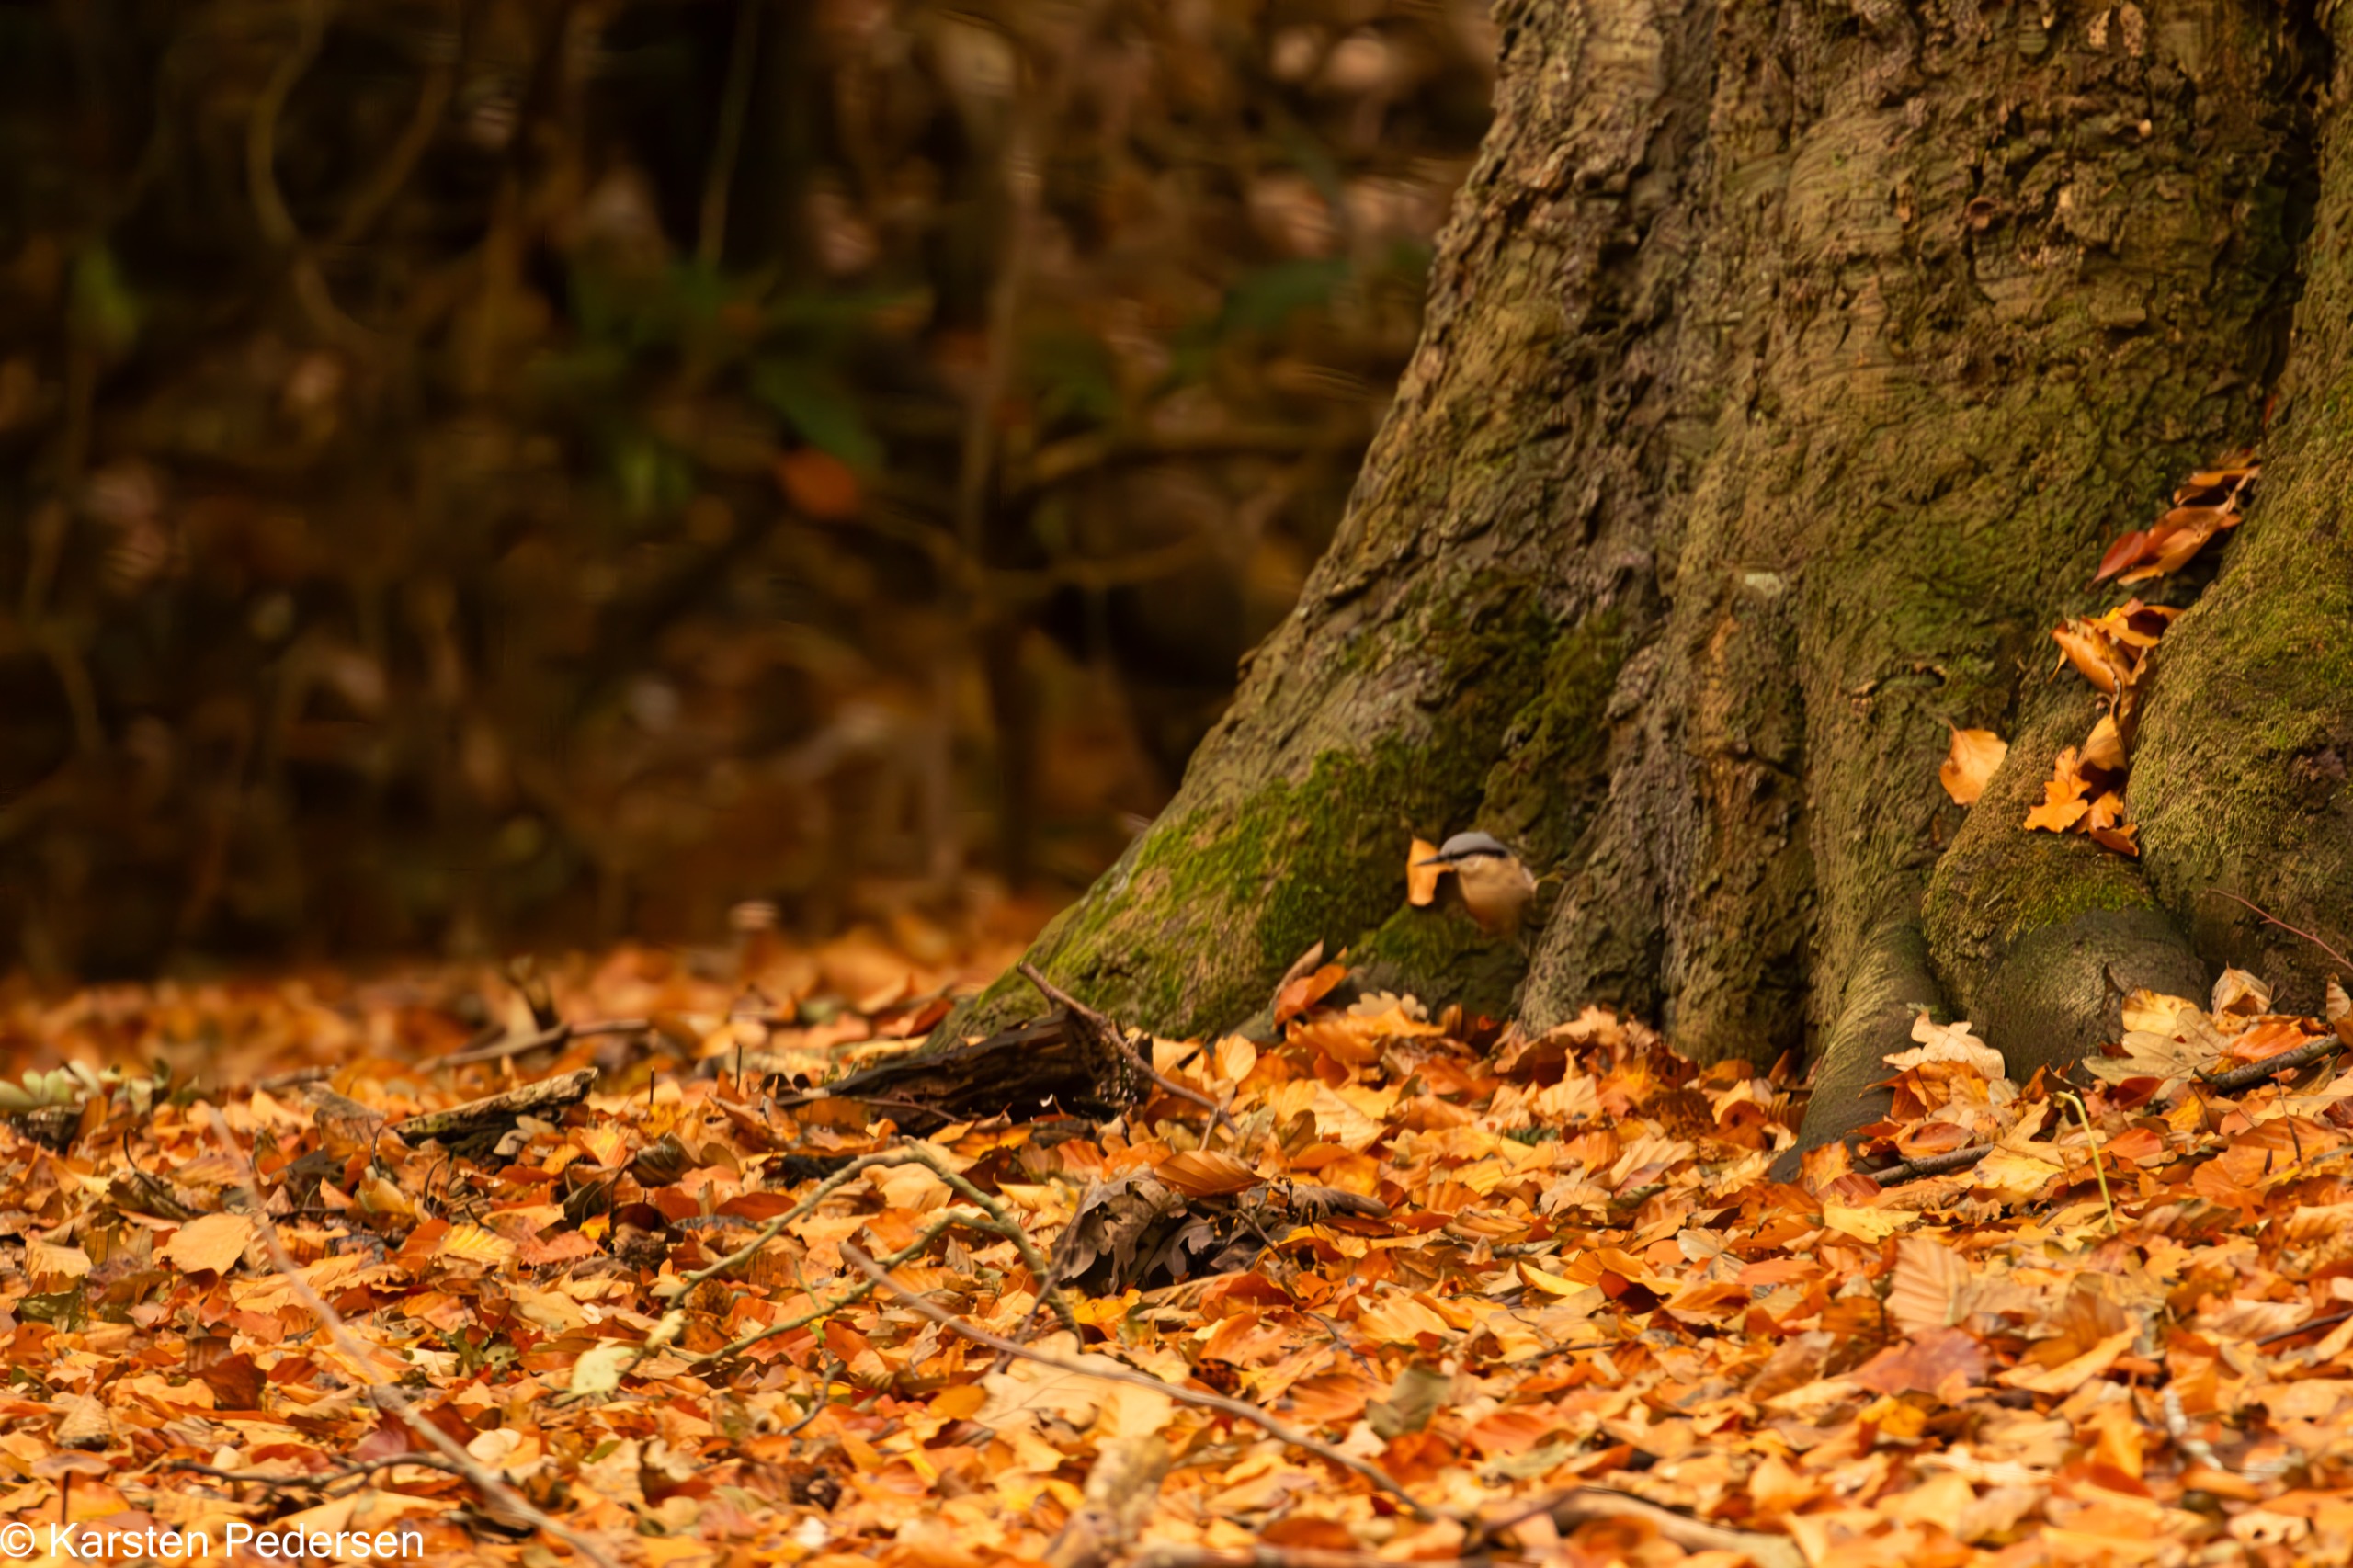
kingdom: Animalia
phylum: Chordata
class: Aves
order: Passeriformes
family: Sittidae
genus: Sitta
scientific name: Sitta europaea
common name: Spætmejse
